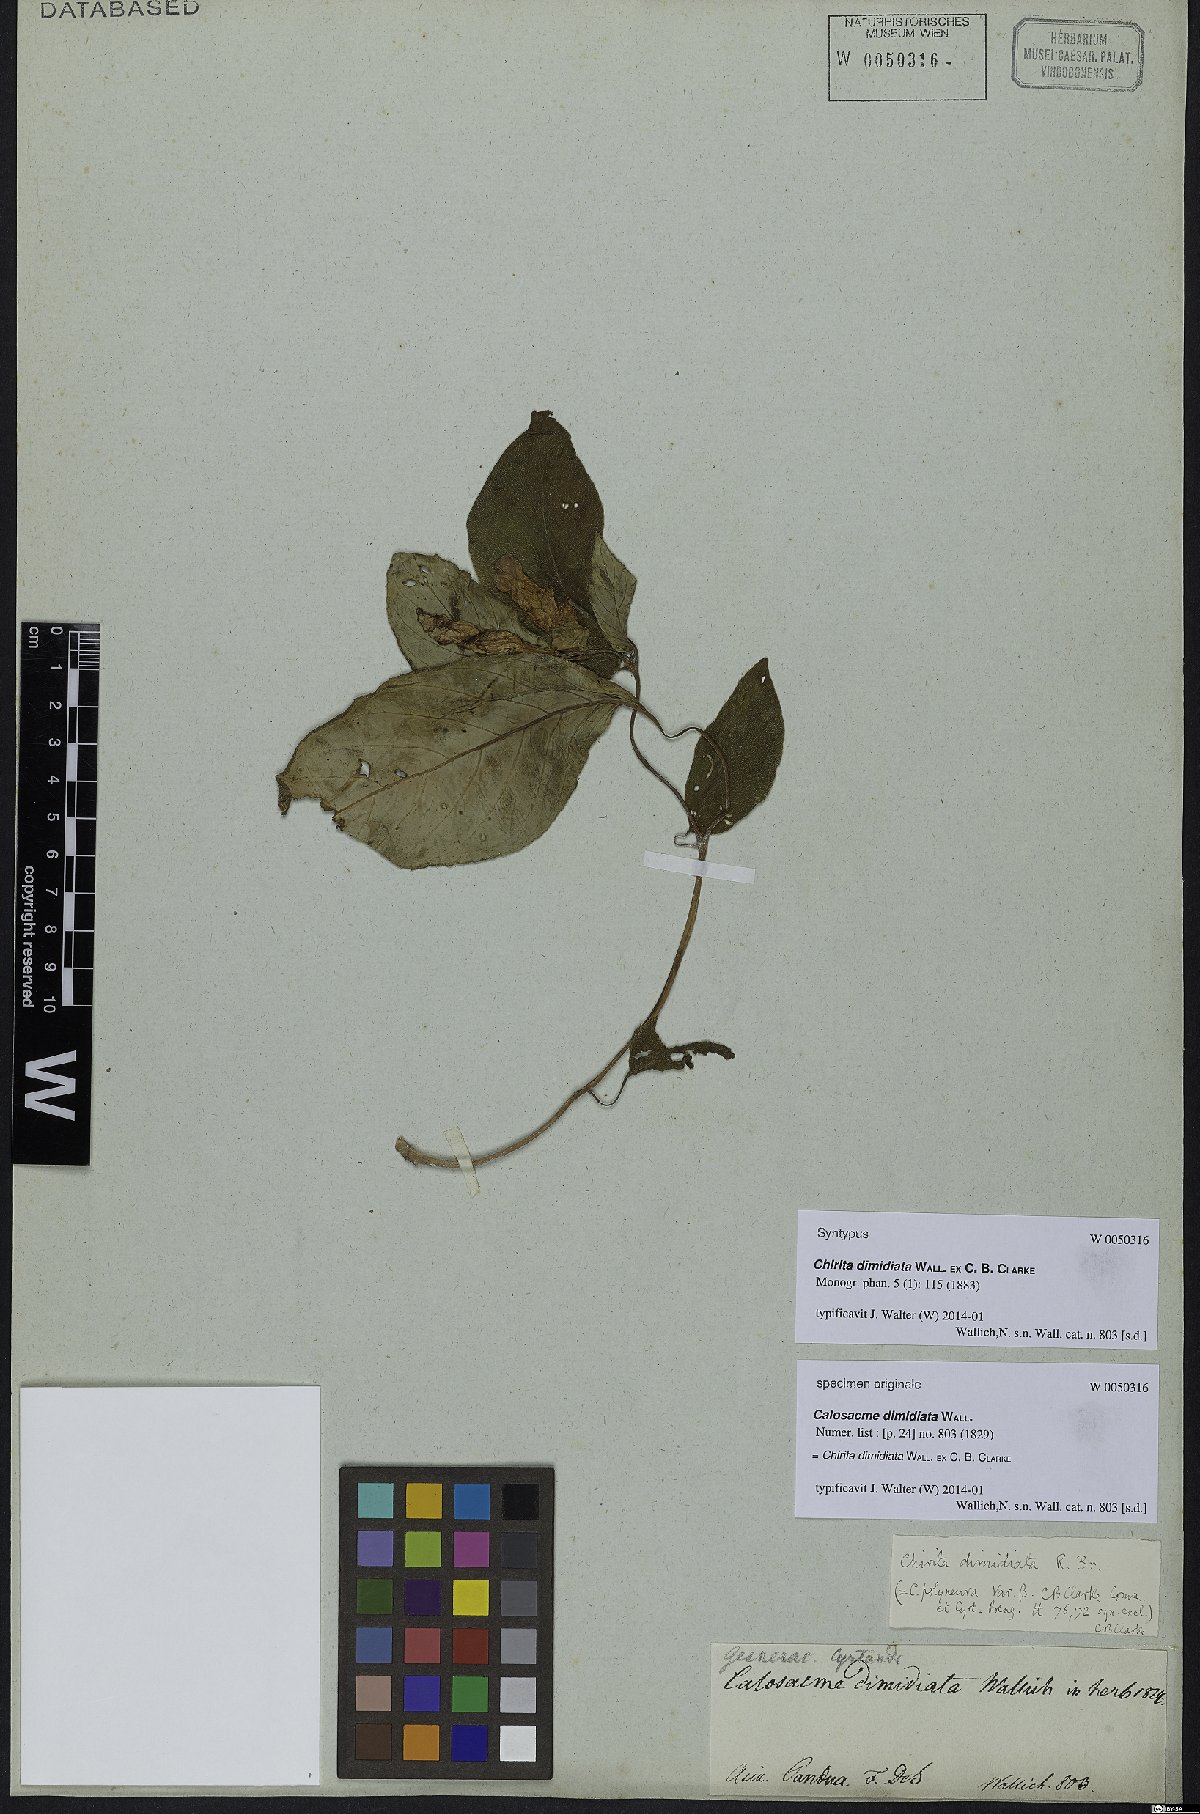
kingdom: Plantae
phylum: Tracheophyta
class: Magnoliopsida
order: Lamiales
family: Gesneriaceae
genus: Henckelia
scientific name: Henckelia dimidiata
